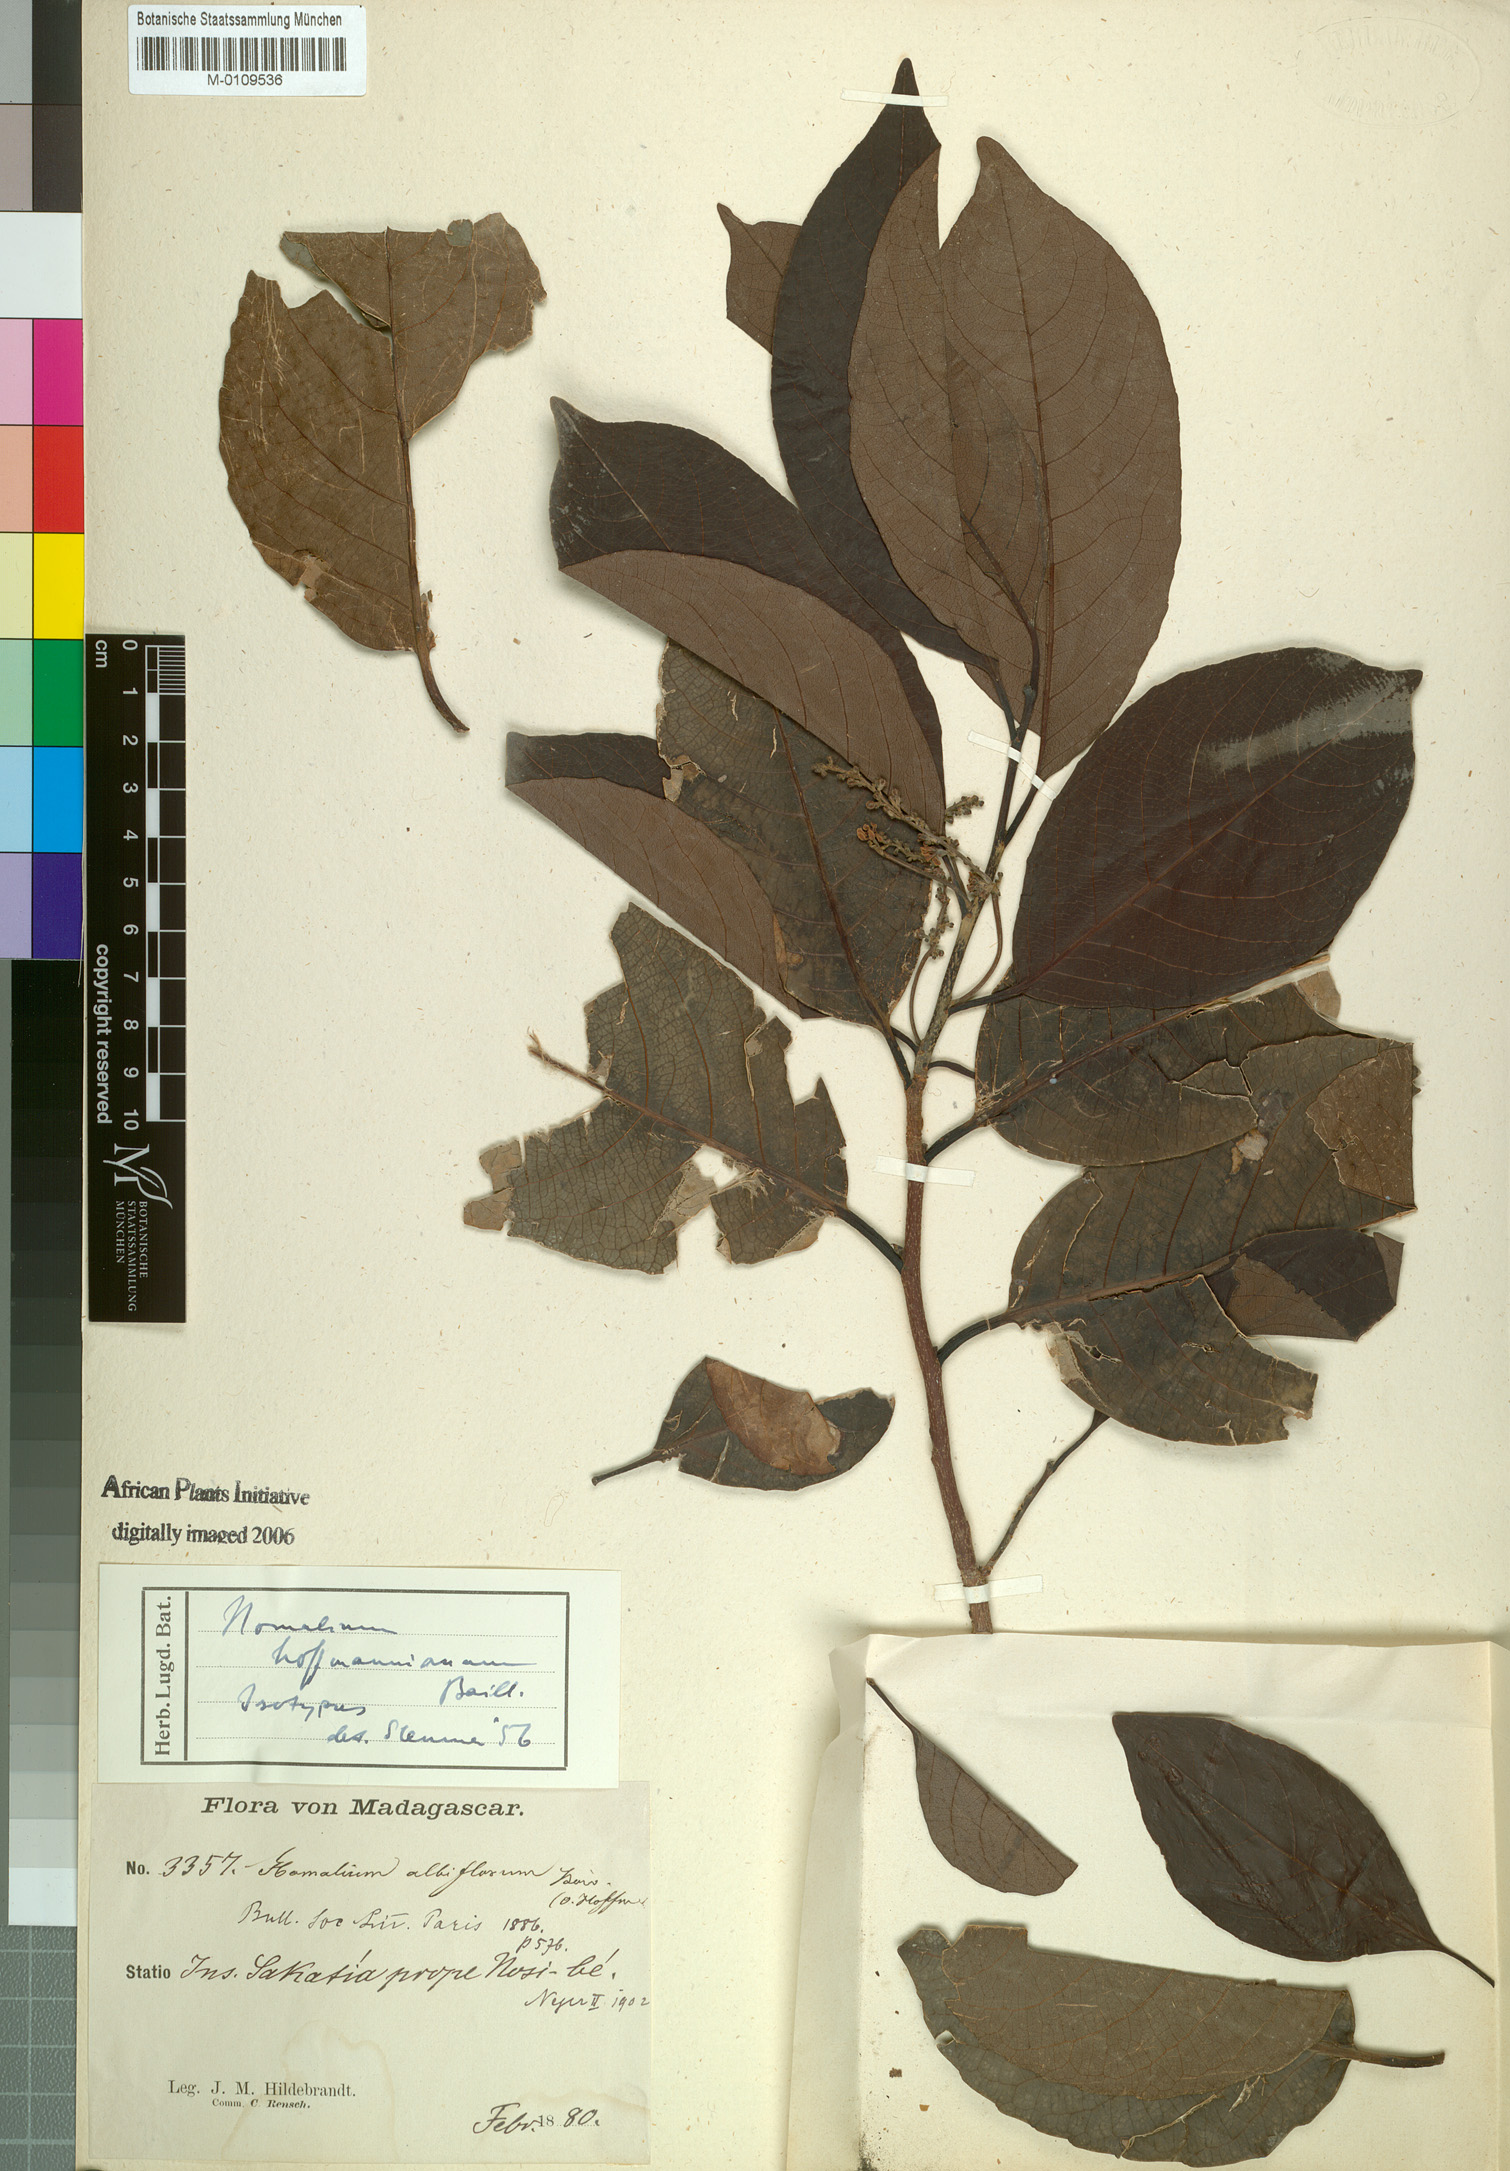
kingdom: Plantae
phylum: Tracheophyta
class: Magnoliopsida
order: Malpighiales
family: Salicaceae
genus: Homalium
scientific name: Homalium albiflorum
